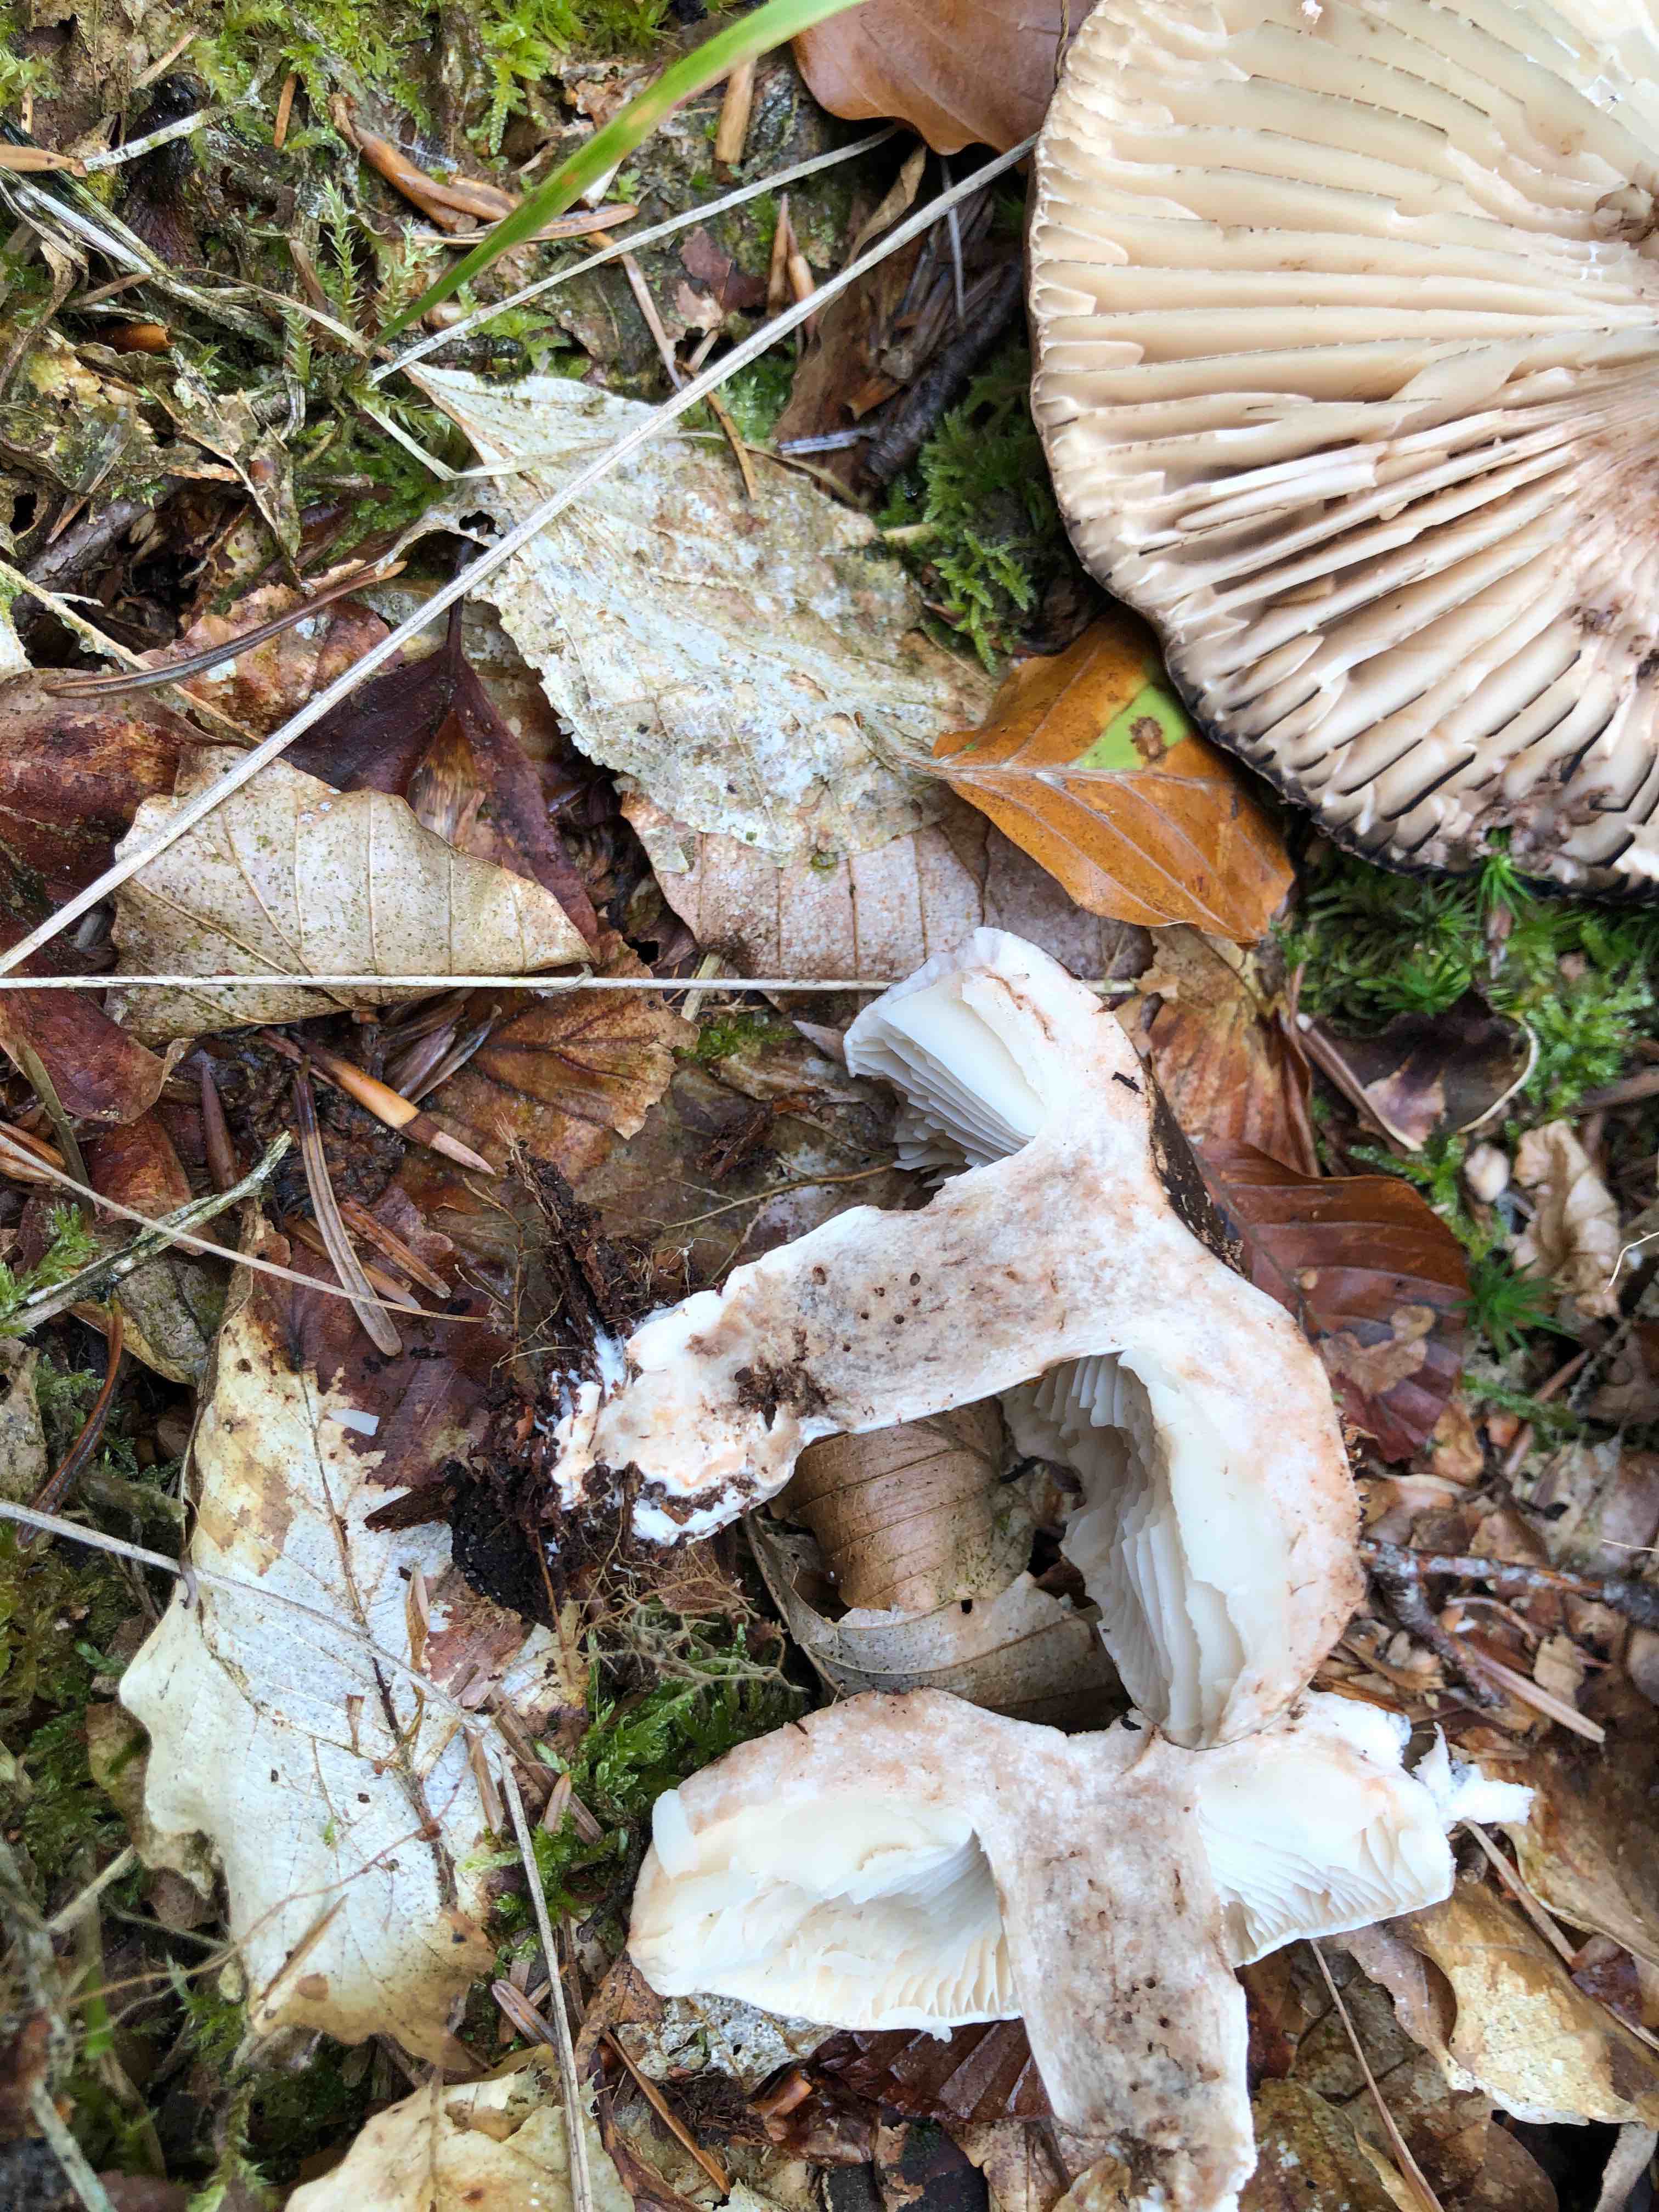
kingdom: Fungi
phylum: Basidiomycota
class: Agaricomycetes
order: Russulales
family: Russulaceae
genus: Russula
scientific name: Russula adusta
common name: sværtende skørhat
